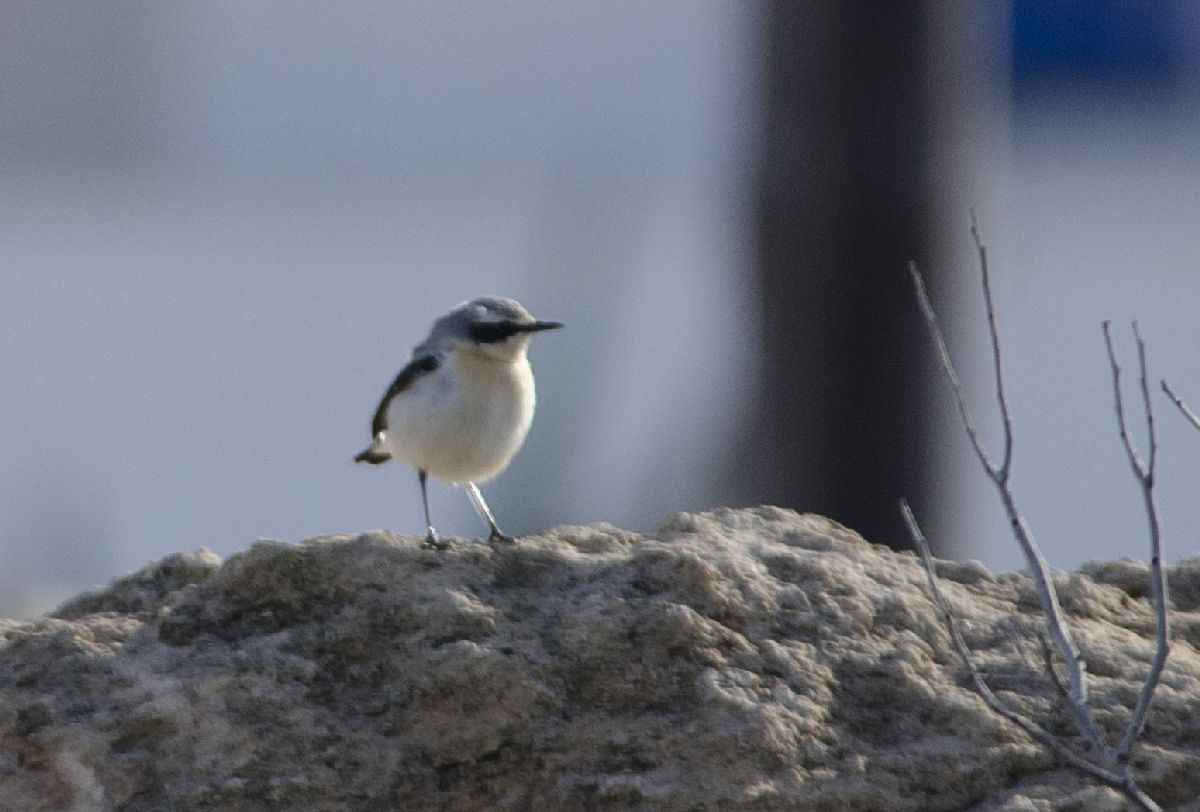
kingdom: Animalia
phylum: Chordata
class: Aves
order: Passeriformes
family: Muscicapidae
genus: Oenanthe
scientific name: Oenanthe oenanthe
